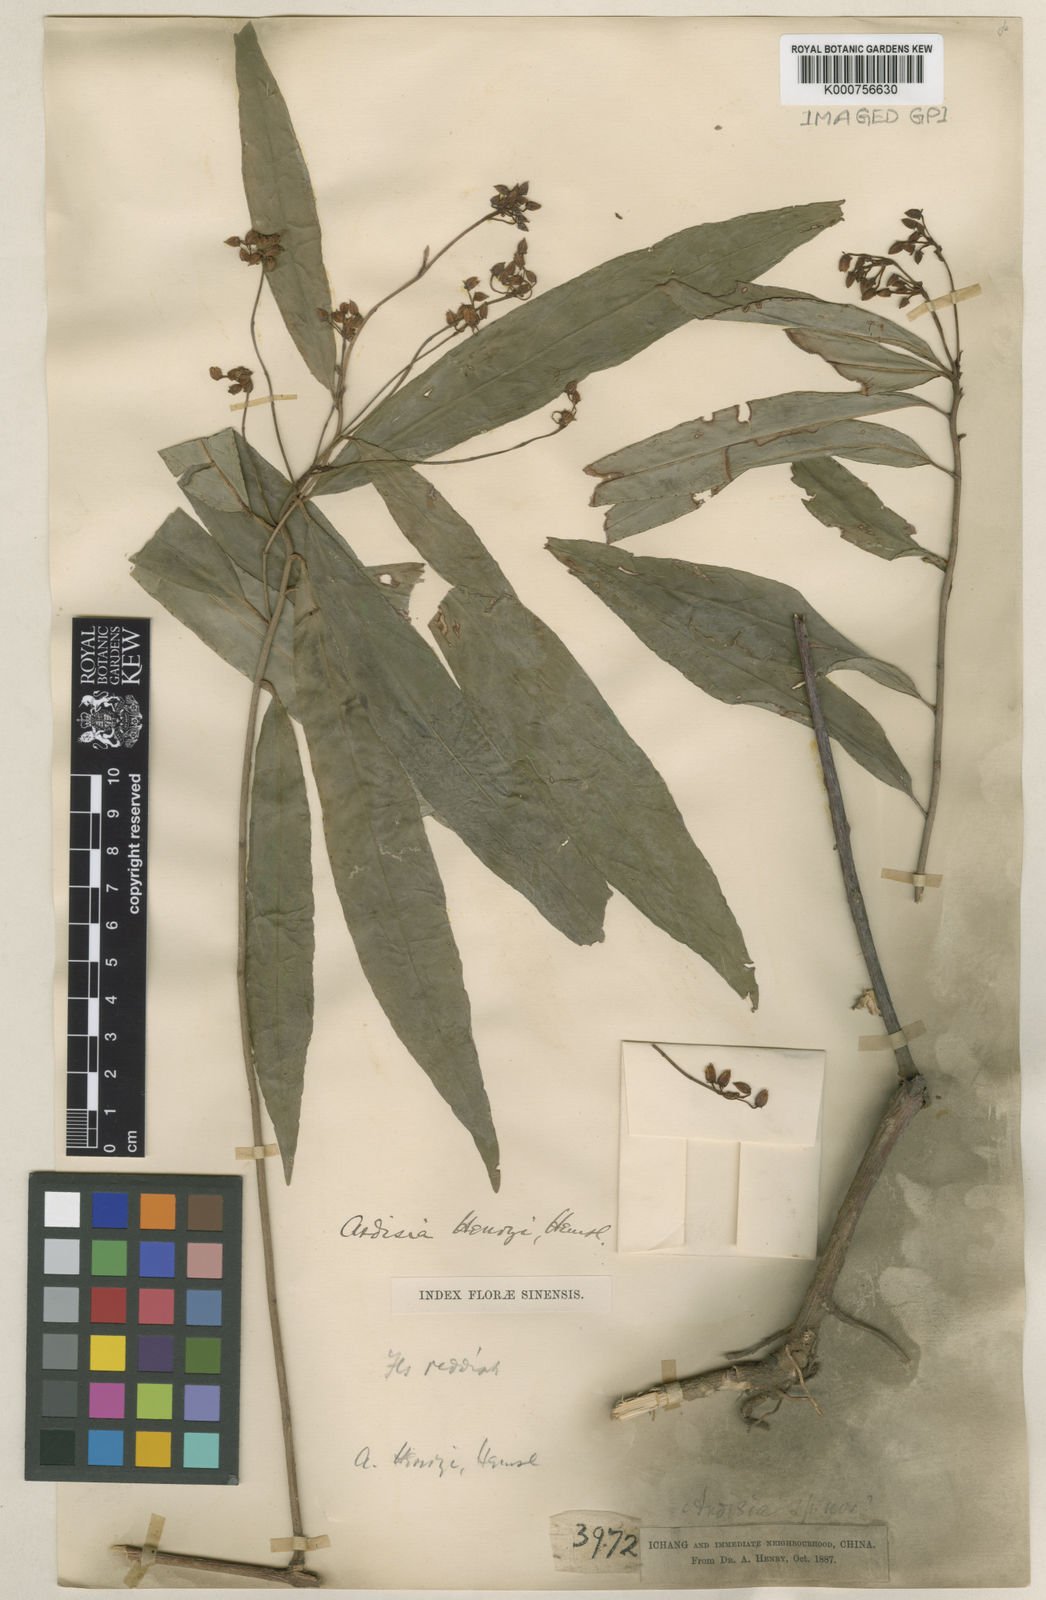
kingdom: Plantae
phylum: Tracheophyta
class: Magnoliopsida
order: Ericales
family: Primulaceae
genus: Ardisia
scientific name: Ardisia crispa
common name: Japanese-holly
